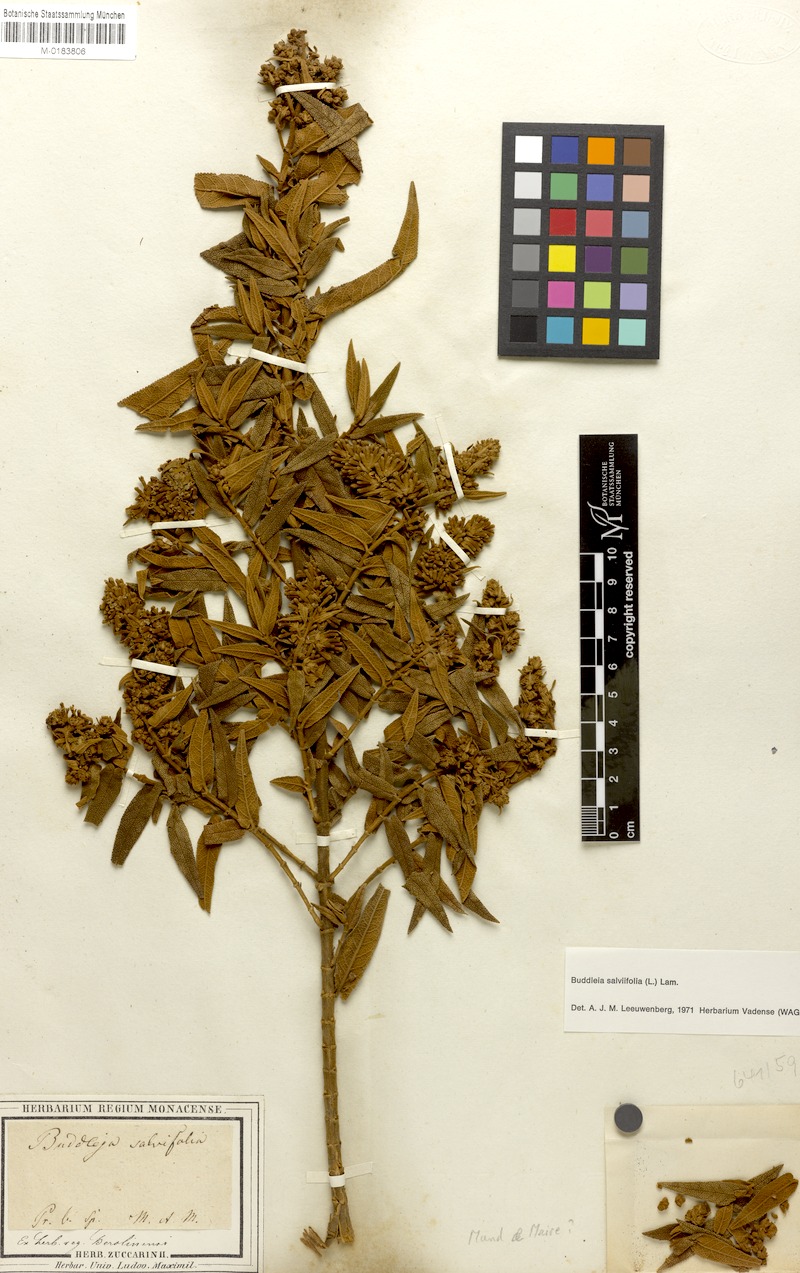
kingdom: Plantae
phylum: Tracheophyta
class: Magnoliopsida
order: Lamiales
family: Scrophulariaceae
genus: Buddleja
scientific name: Buddleja salviifolia
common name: Sagewood
